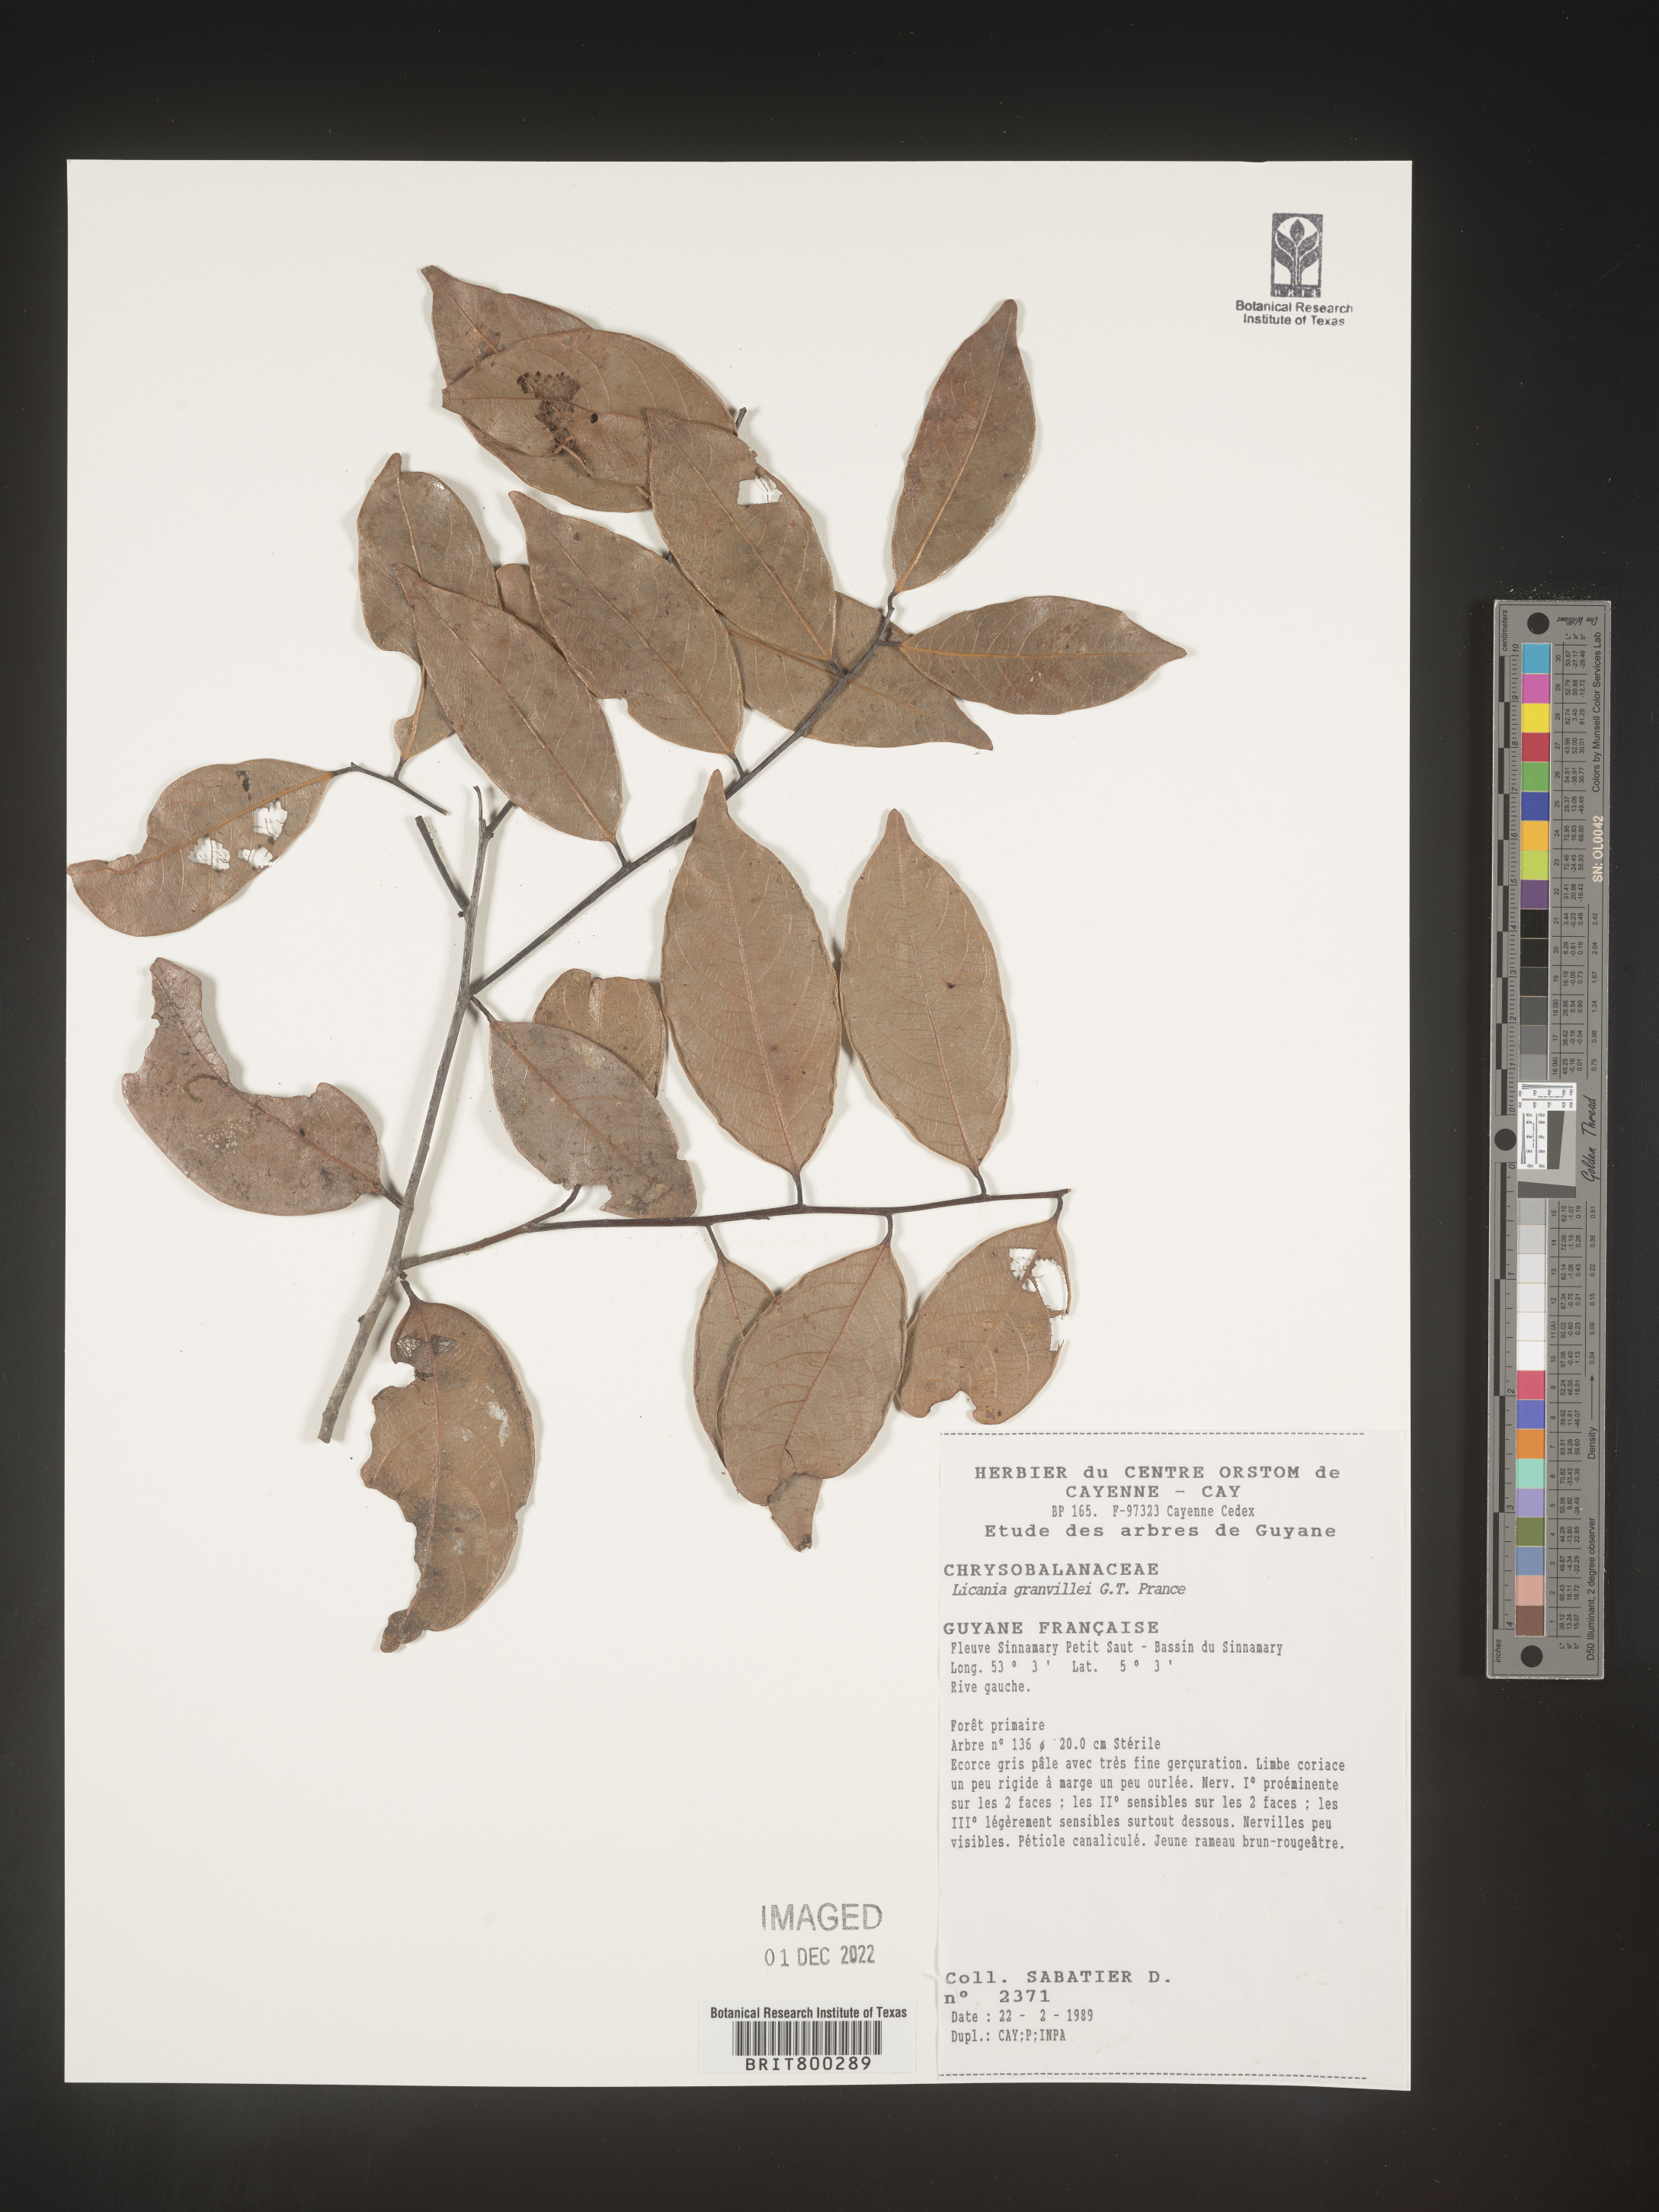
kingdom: Plantae
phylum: Tracheophyta
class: Magnoliopsida
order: Malpighiales
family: Chrysobalanaceae
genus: Geobalanus
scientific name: Geobalanus oblongifolius
